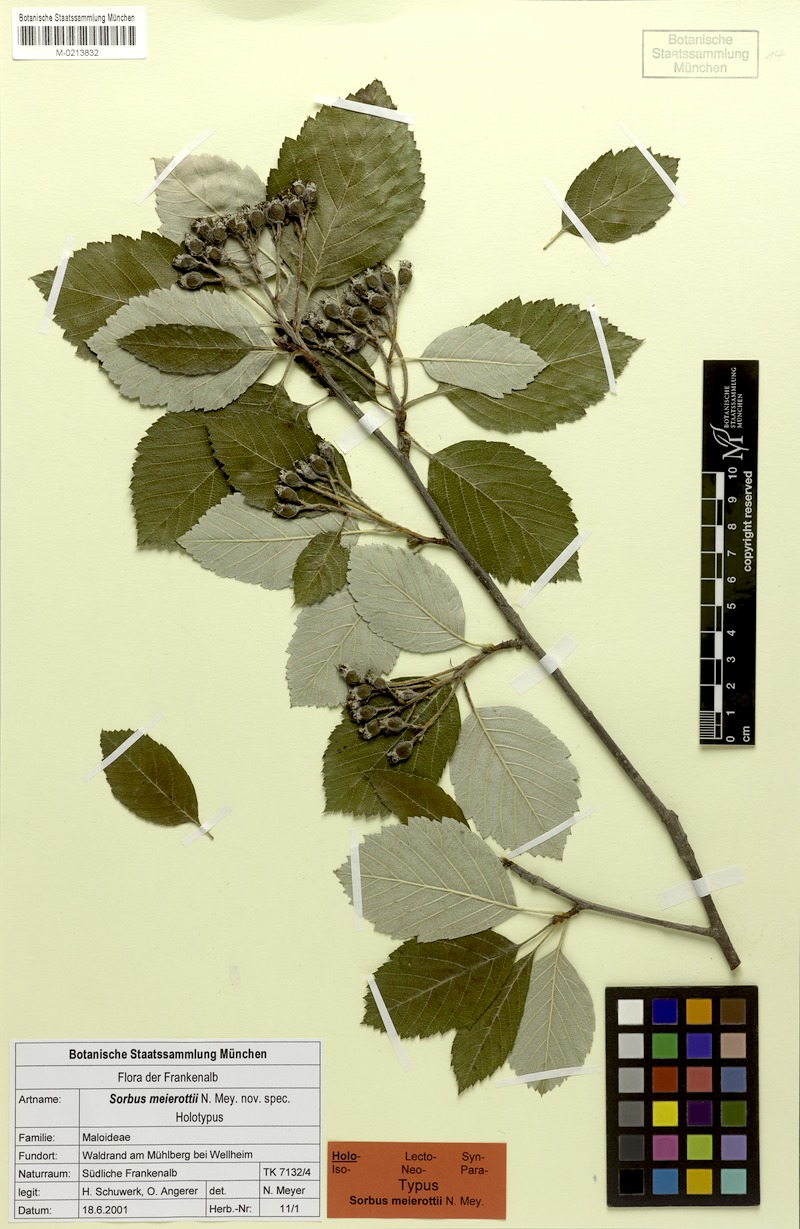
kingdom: Plantae
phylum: Tracheophyta
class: Magnoliopsida
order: Rosales
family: Rosaceae
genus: Karpatiosorbus
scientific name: Karpatiosorbus meierottii
